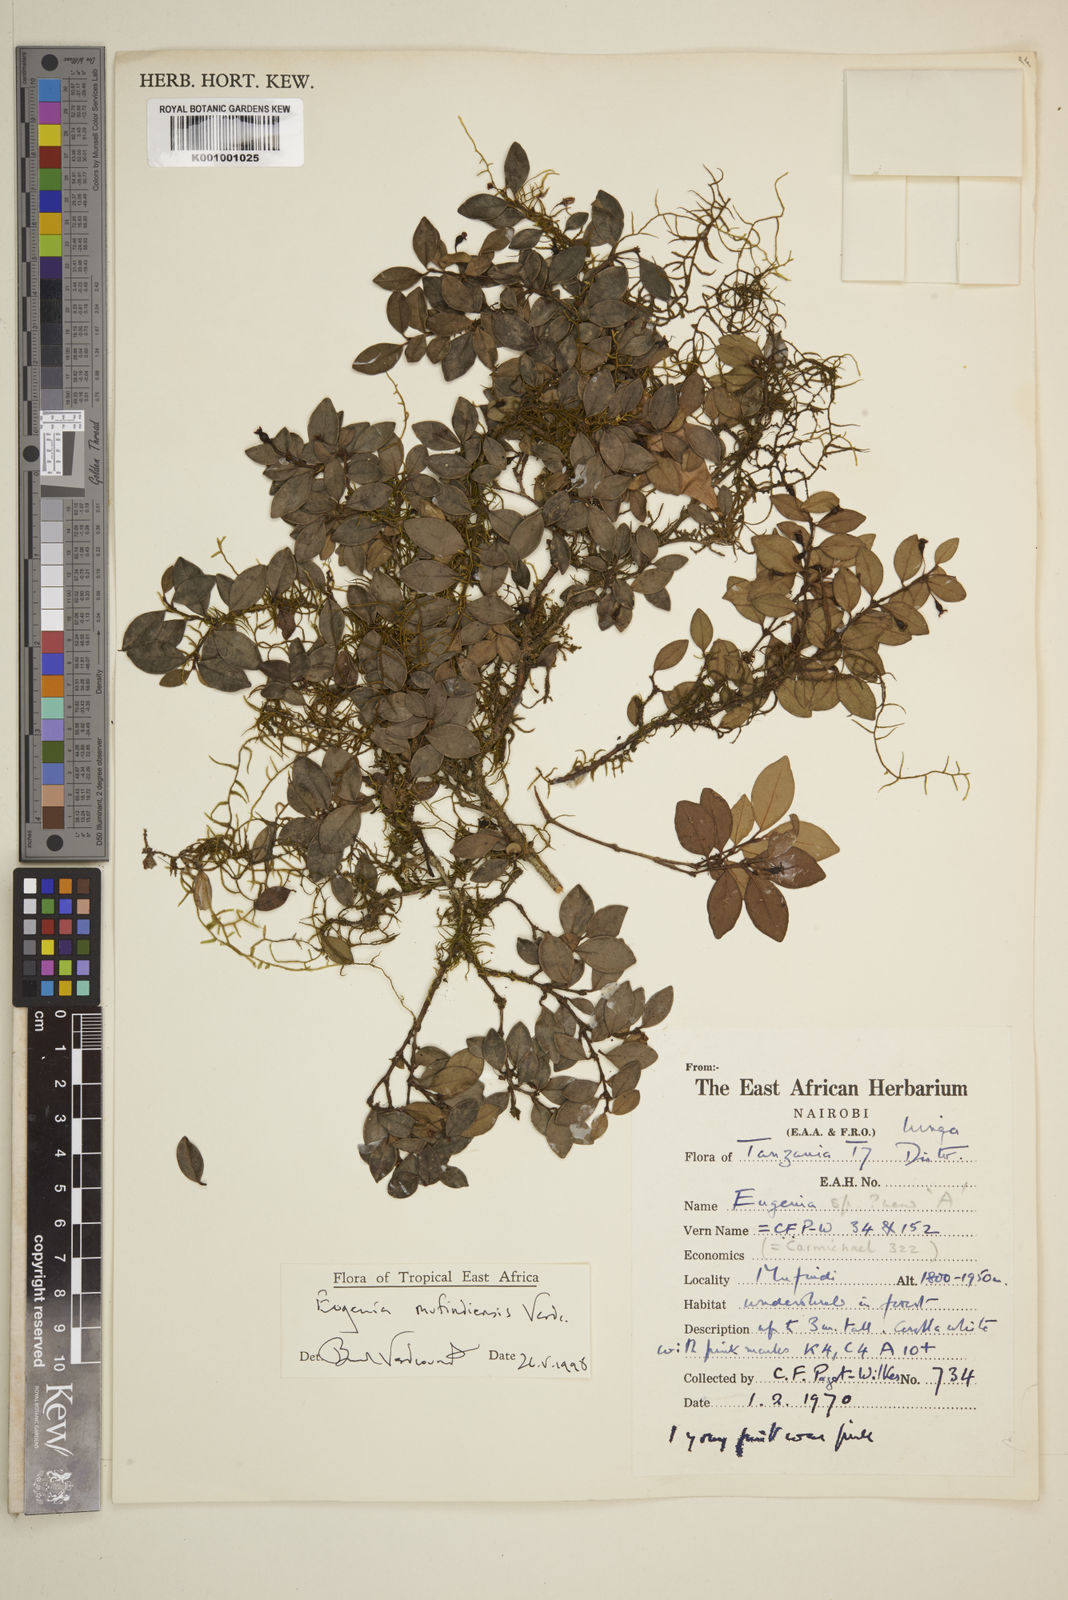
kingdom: Plantae
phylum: Tracheophyta
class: Magnoliopsida
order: Myrtales
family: Myrtaceae
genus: Eugenia
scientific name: Eugenia mufindiensis
